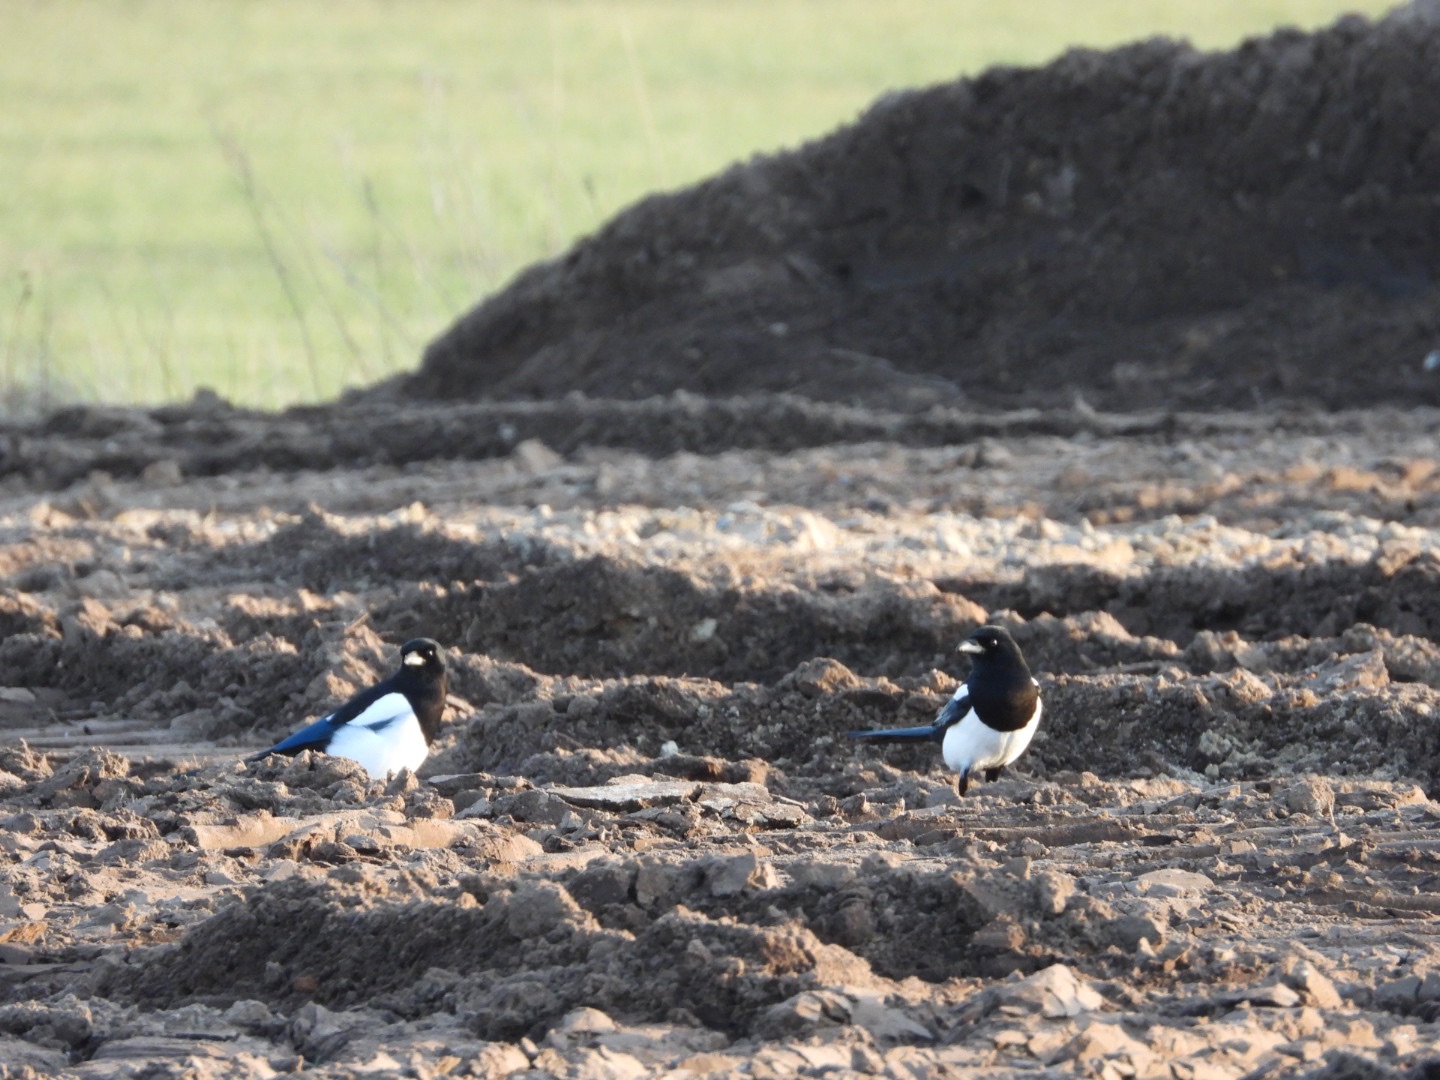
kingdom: Animalia
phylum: Chordata
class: Aves
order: Passeriformes
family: Corvidae
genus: Pica
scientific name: Pica pica
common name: Husskade
